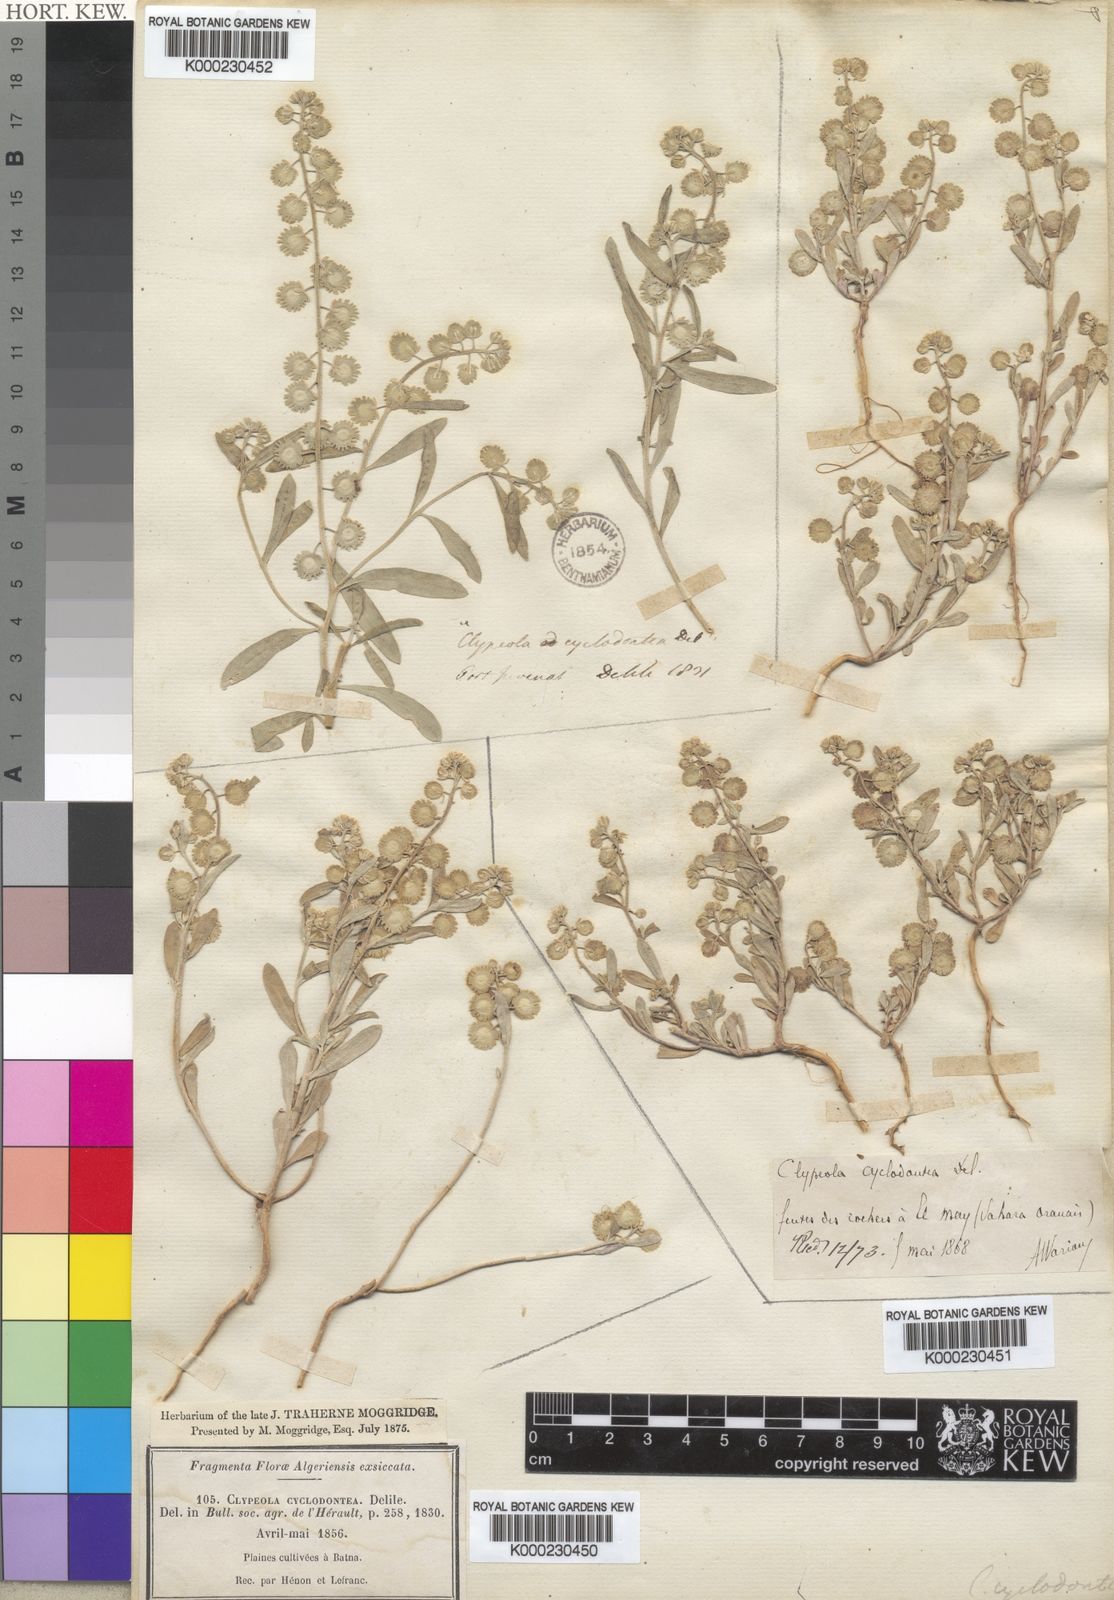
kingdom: Plantae
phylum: Tracheophyta
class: Magnoliopsida
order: Brassicales
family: Brassicaceae
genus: Clypeola
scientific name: Clypeola cyclodontea
